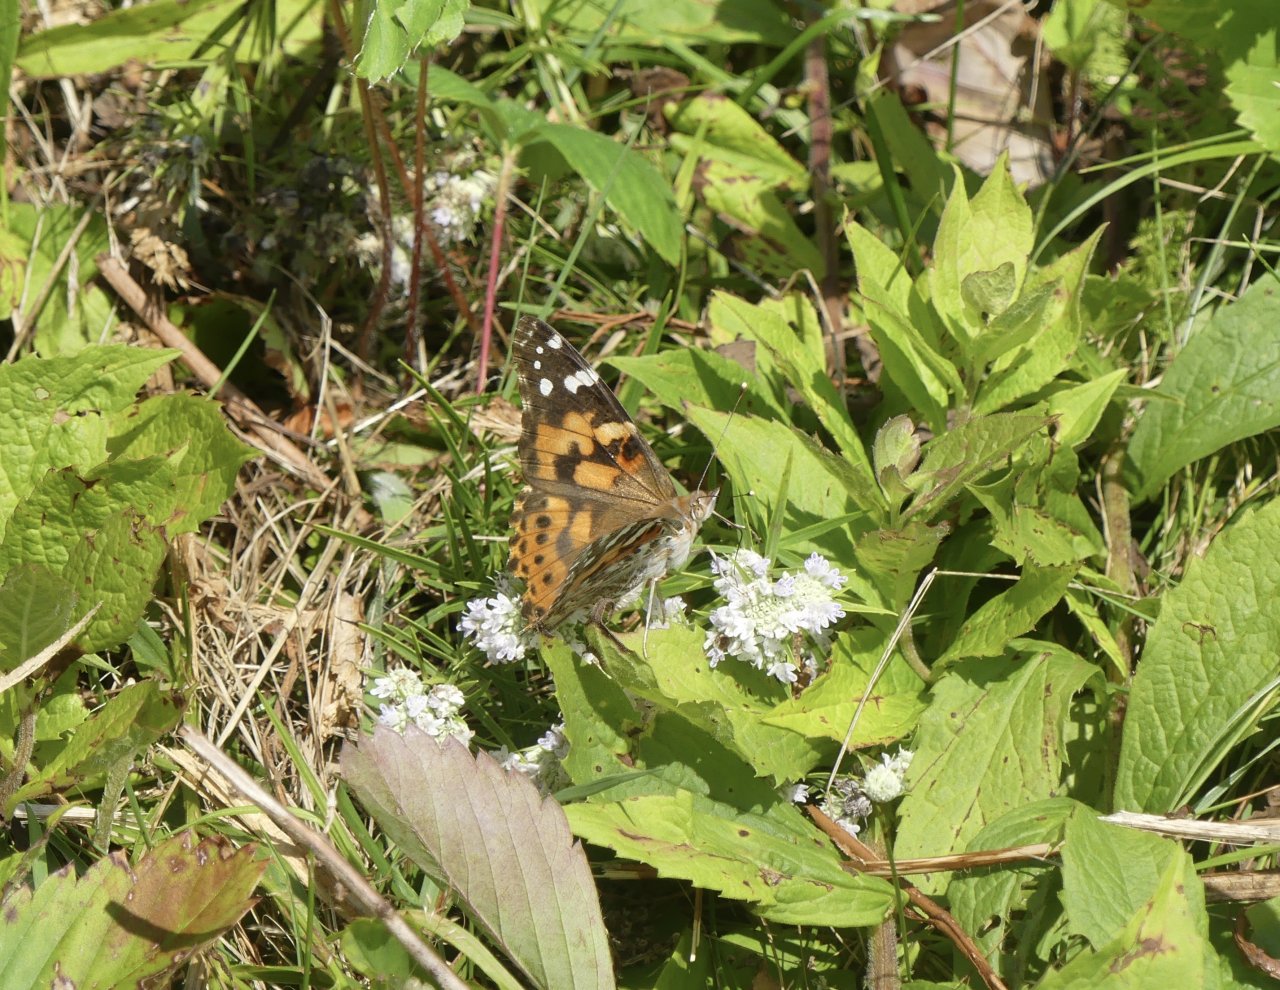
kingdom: Animalia
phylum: Arthropoda
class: Insecta
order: Lepidoptera
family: Nymphalidae
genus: Vanessa
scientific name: Vanessa cardui
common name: Painted Lady
